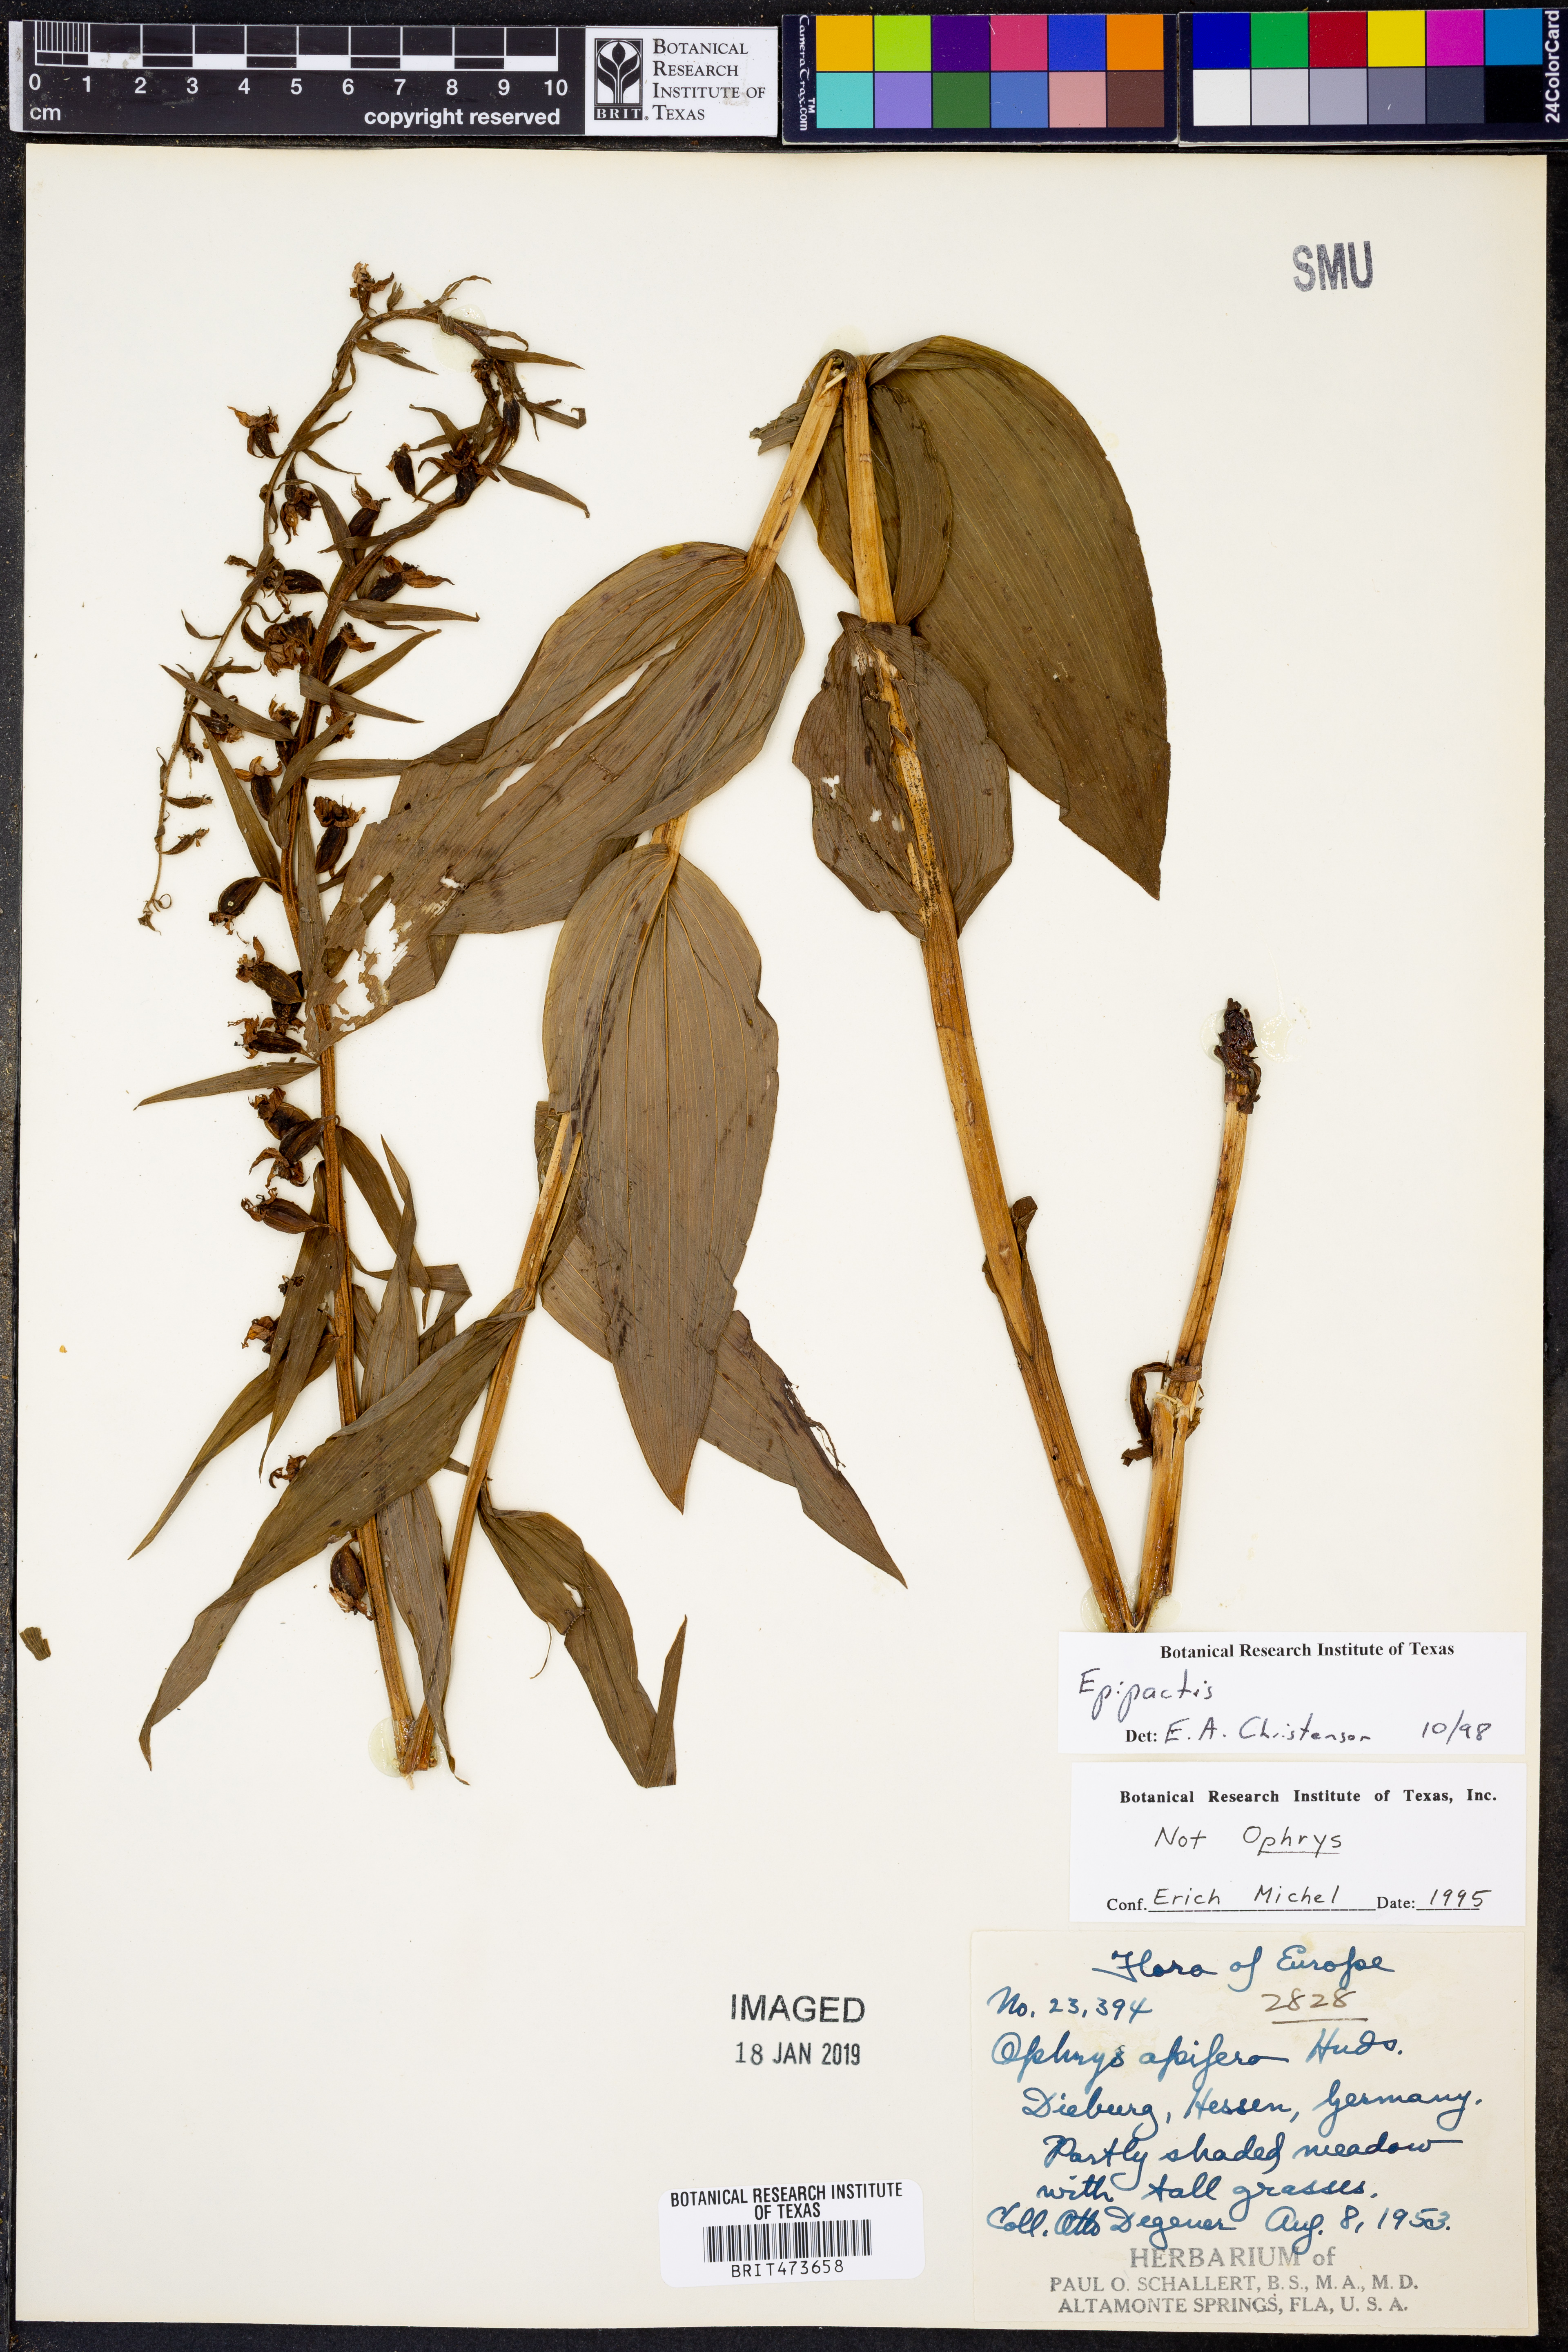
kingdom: Plantae
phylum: Tracheophyta
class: Liliopsida
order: Asparagales
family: Orchidaceae
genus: Epipactis
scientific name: Epipactis
